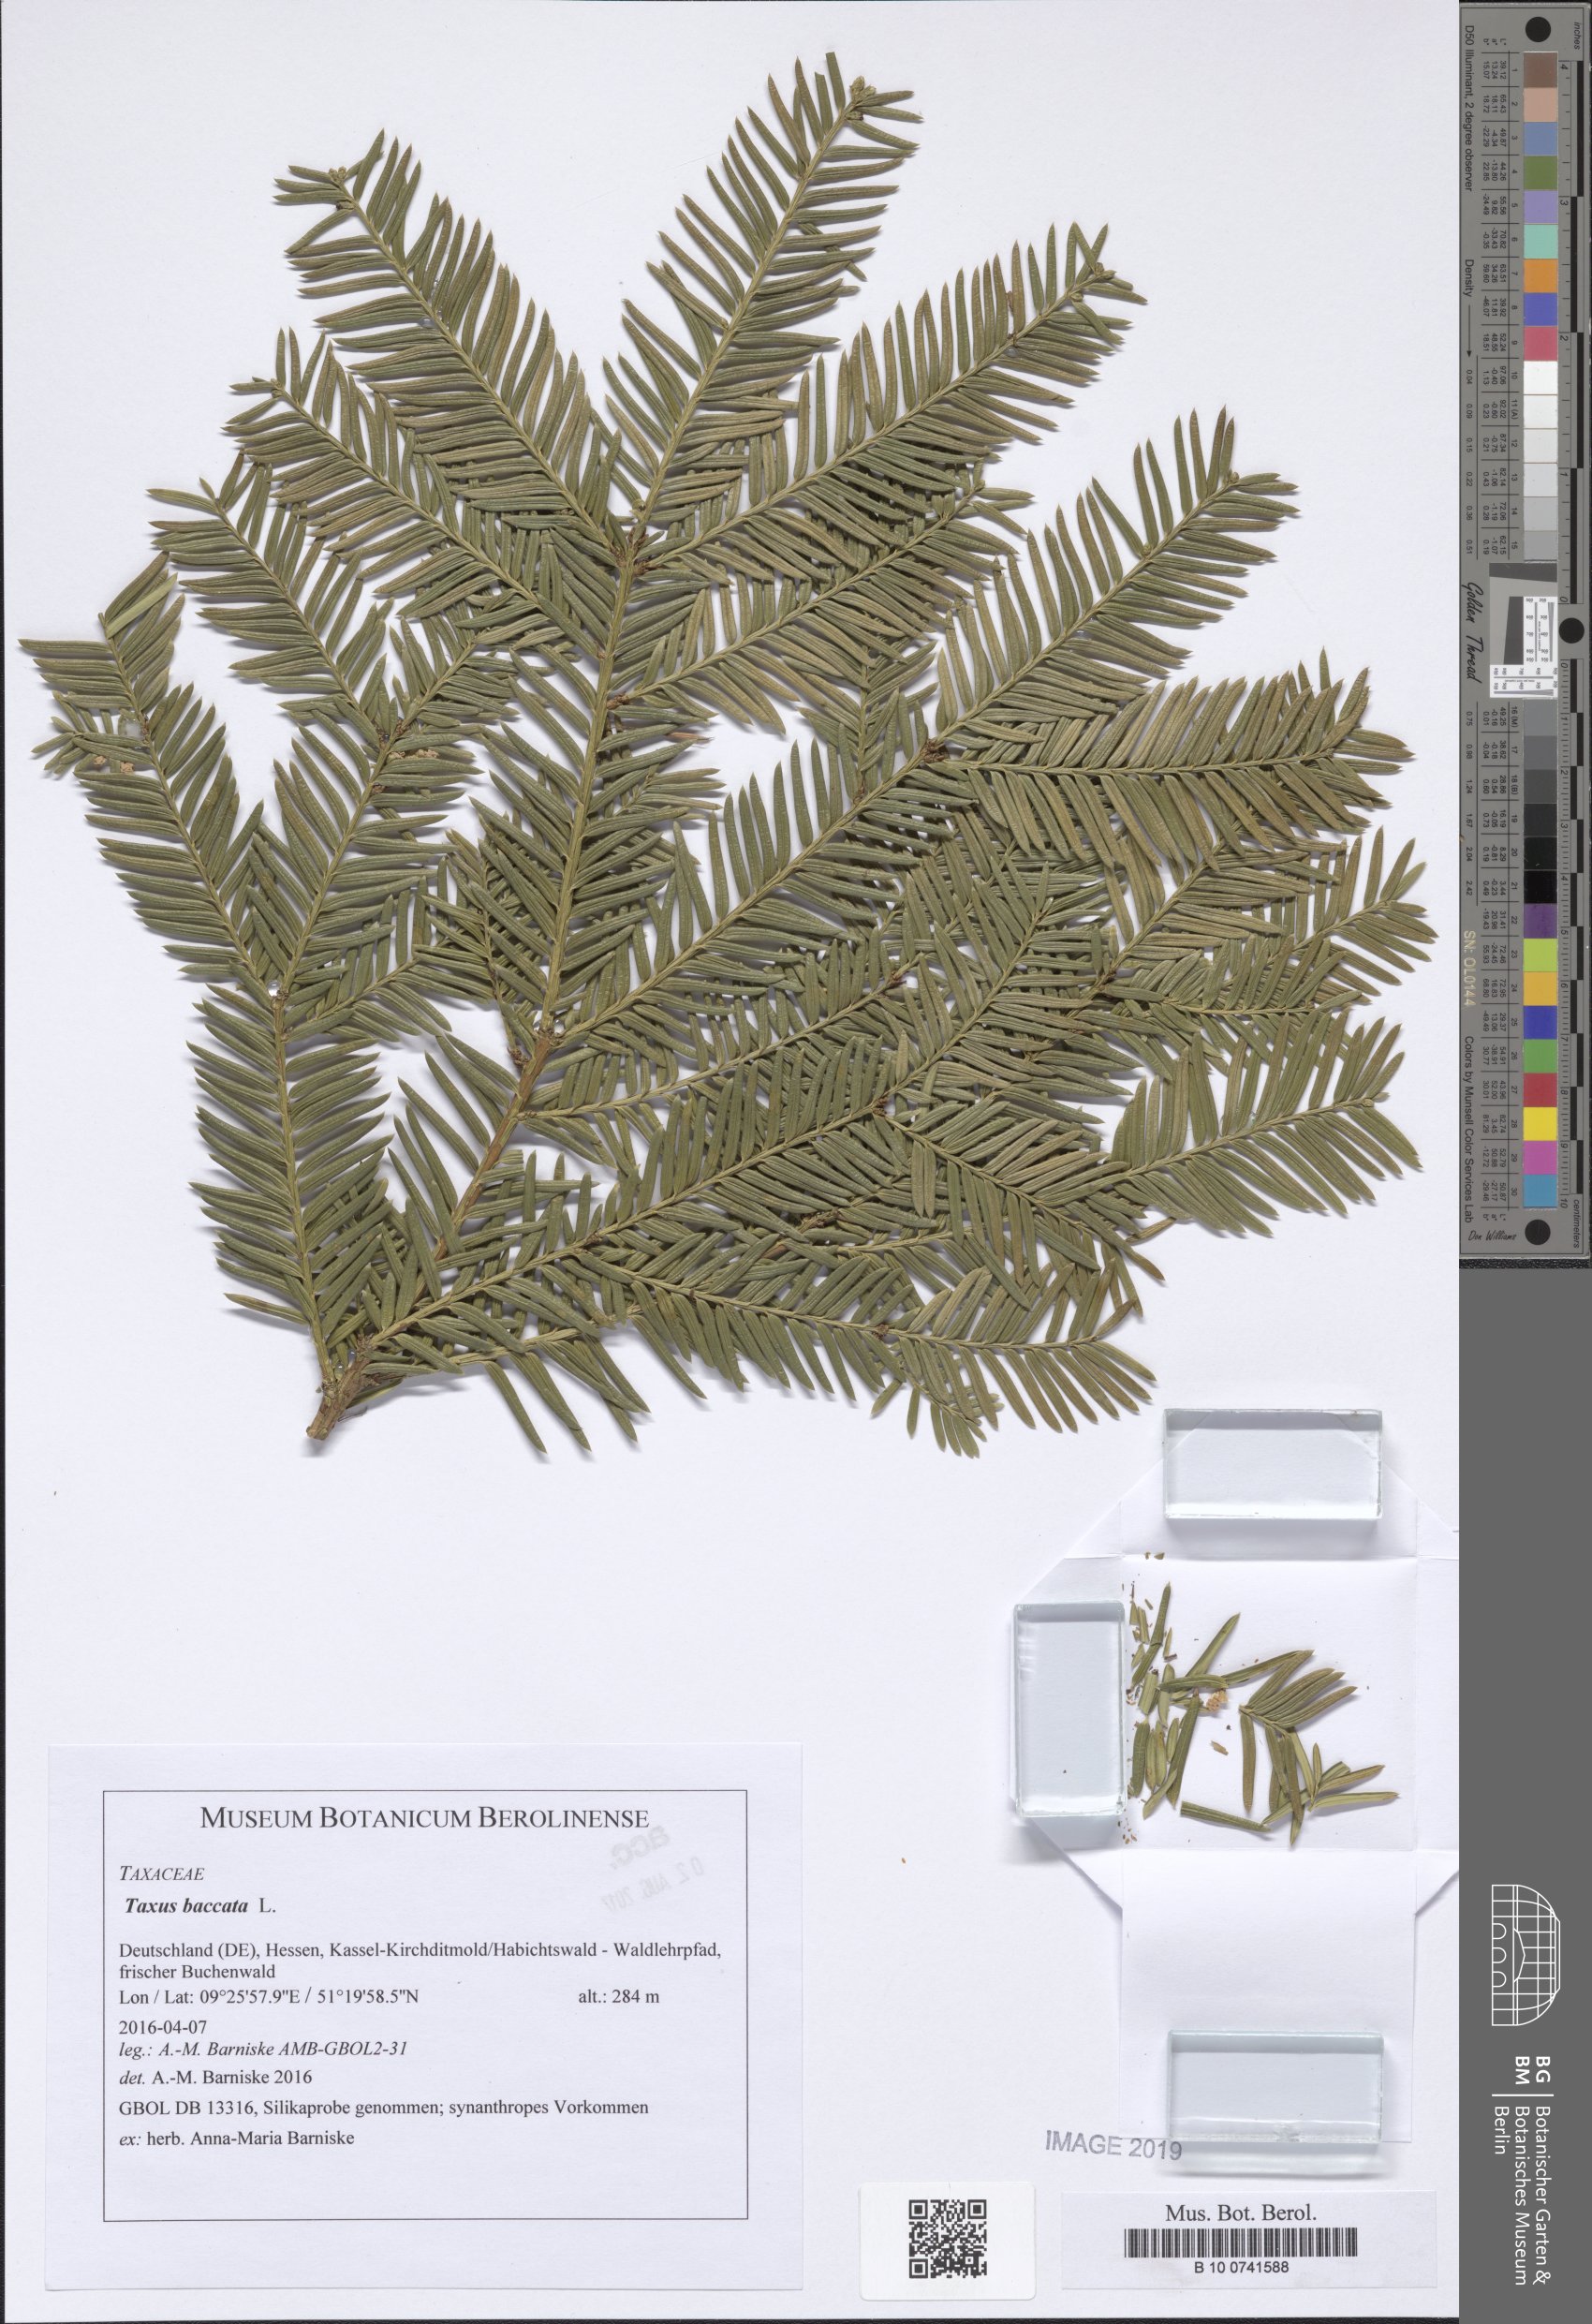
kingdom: Plantae
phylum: Tracheophyta
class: Pinopsida
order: Pinales
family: Taxaceae
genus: Taxus
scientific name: Taxus baccata
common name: Yew
